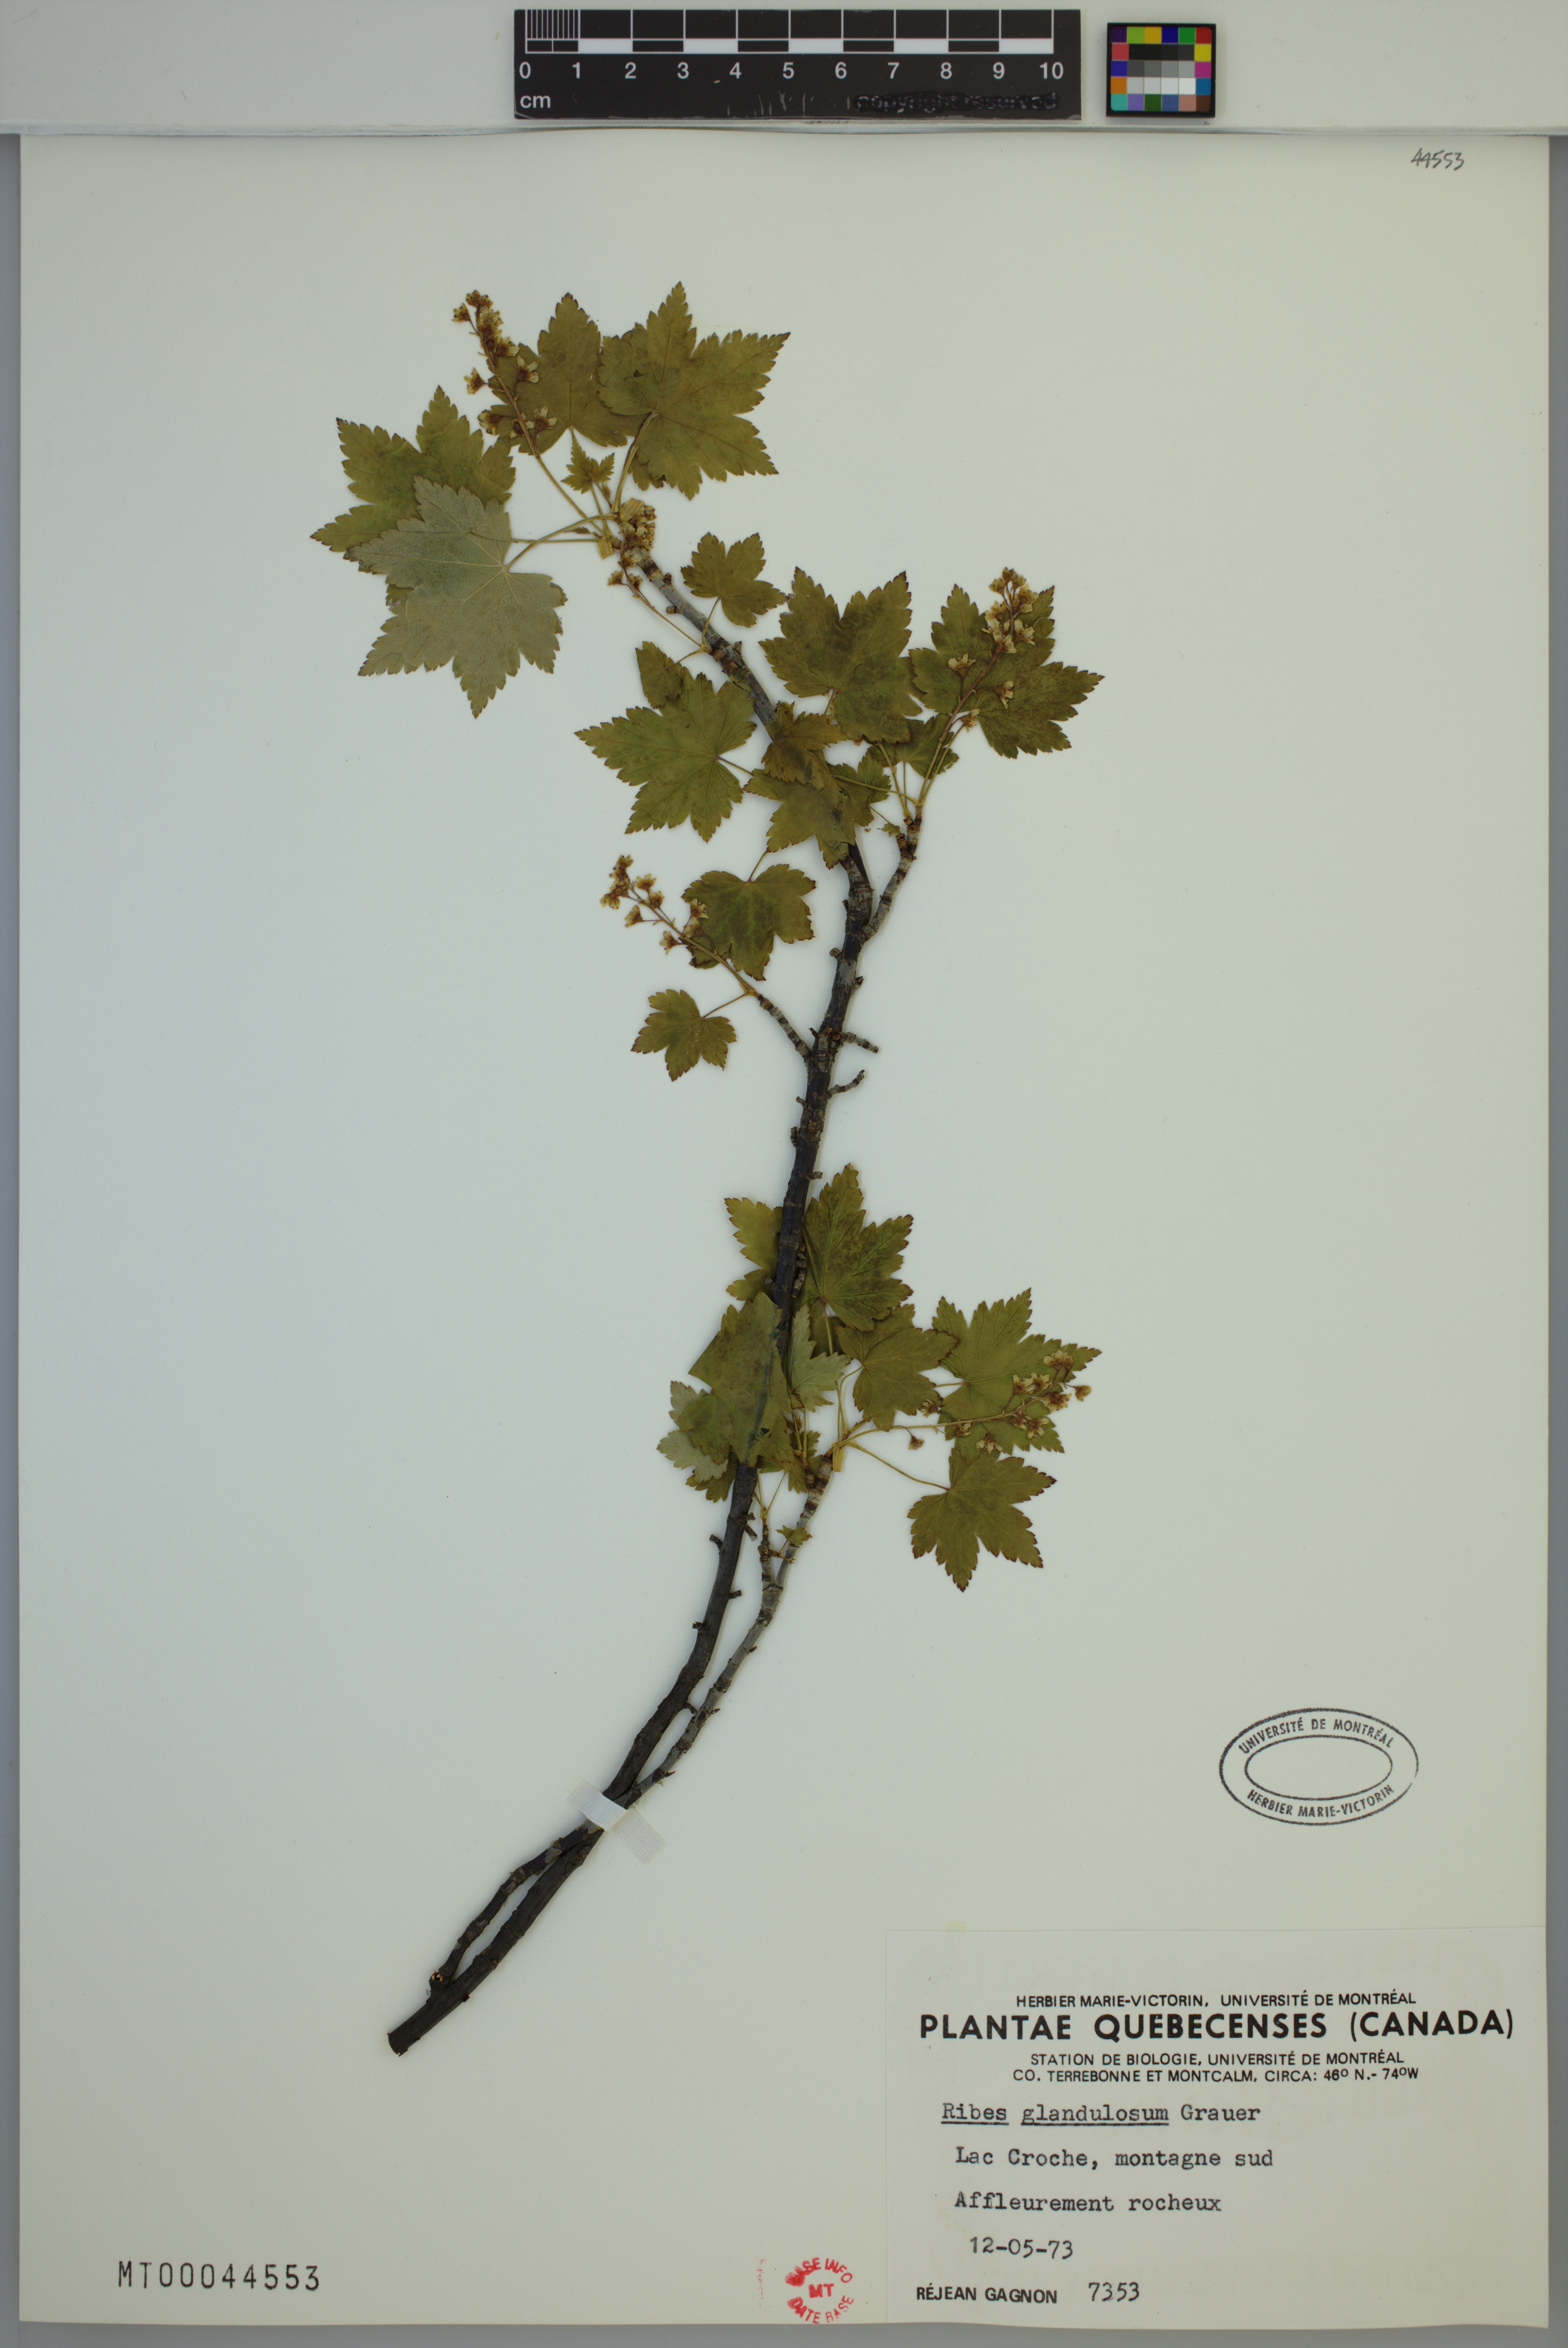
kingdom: Plantae
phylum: Tracheophyta
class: Magnoliopsida
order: Saxifragales
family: Grossulariaceae
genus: Ribes
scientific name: Ribes glandulosum
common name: Skunk currant
